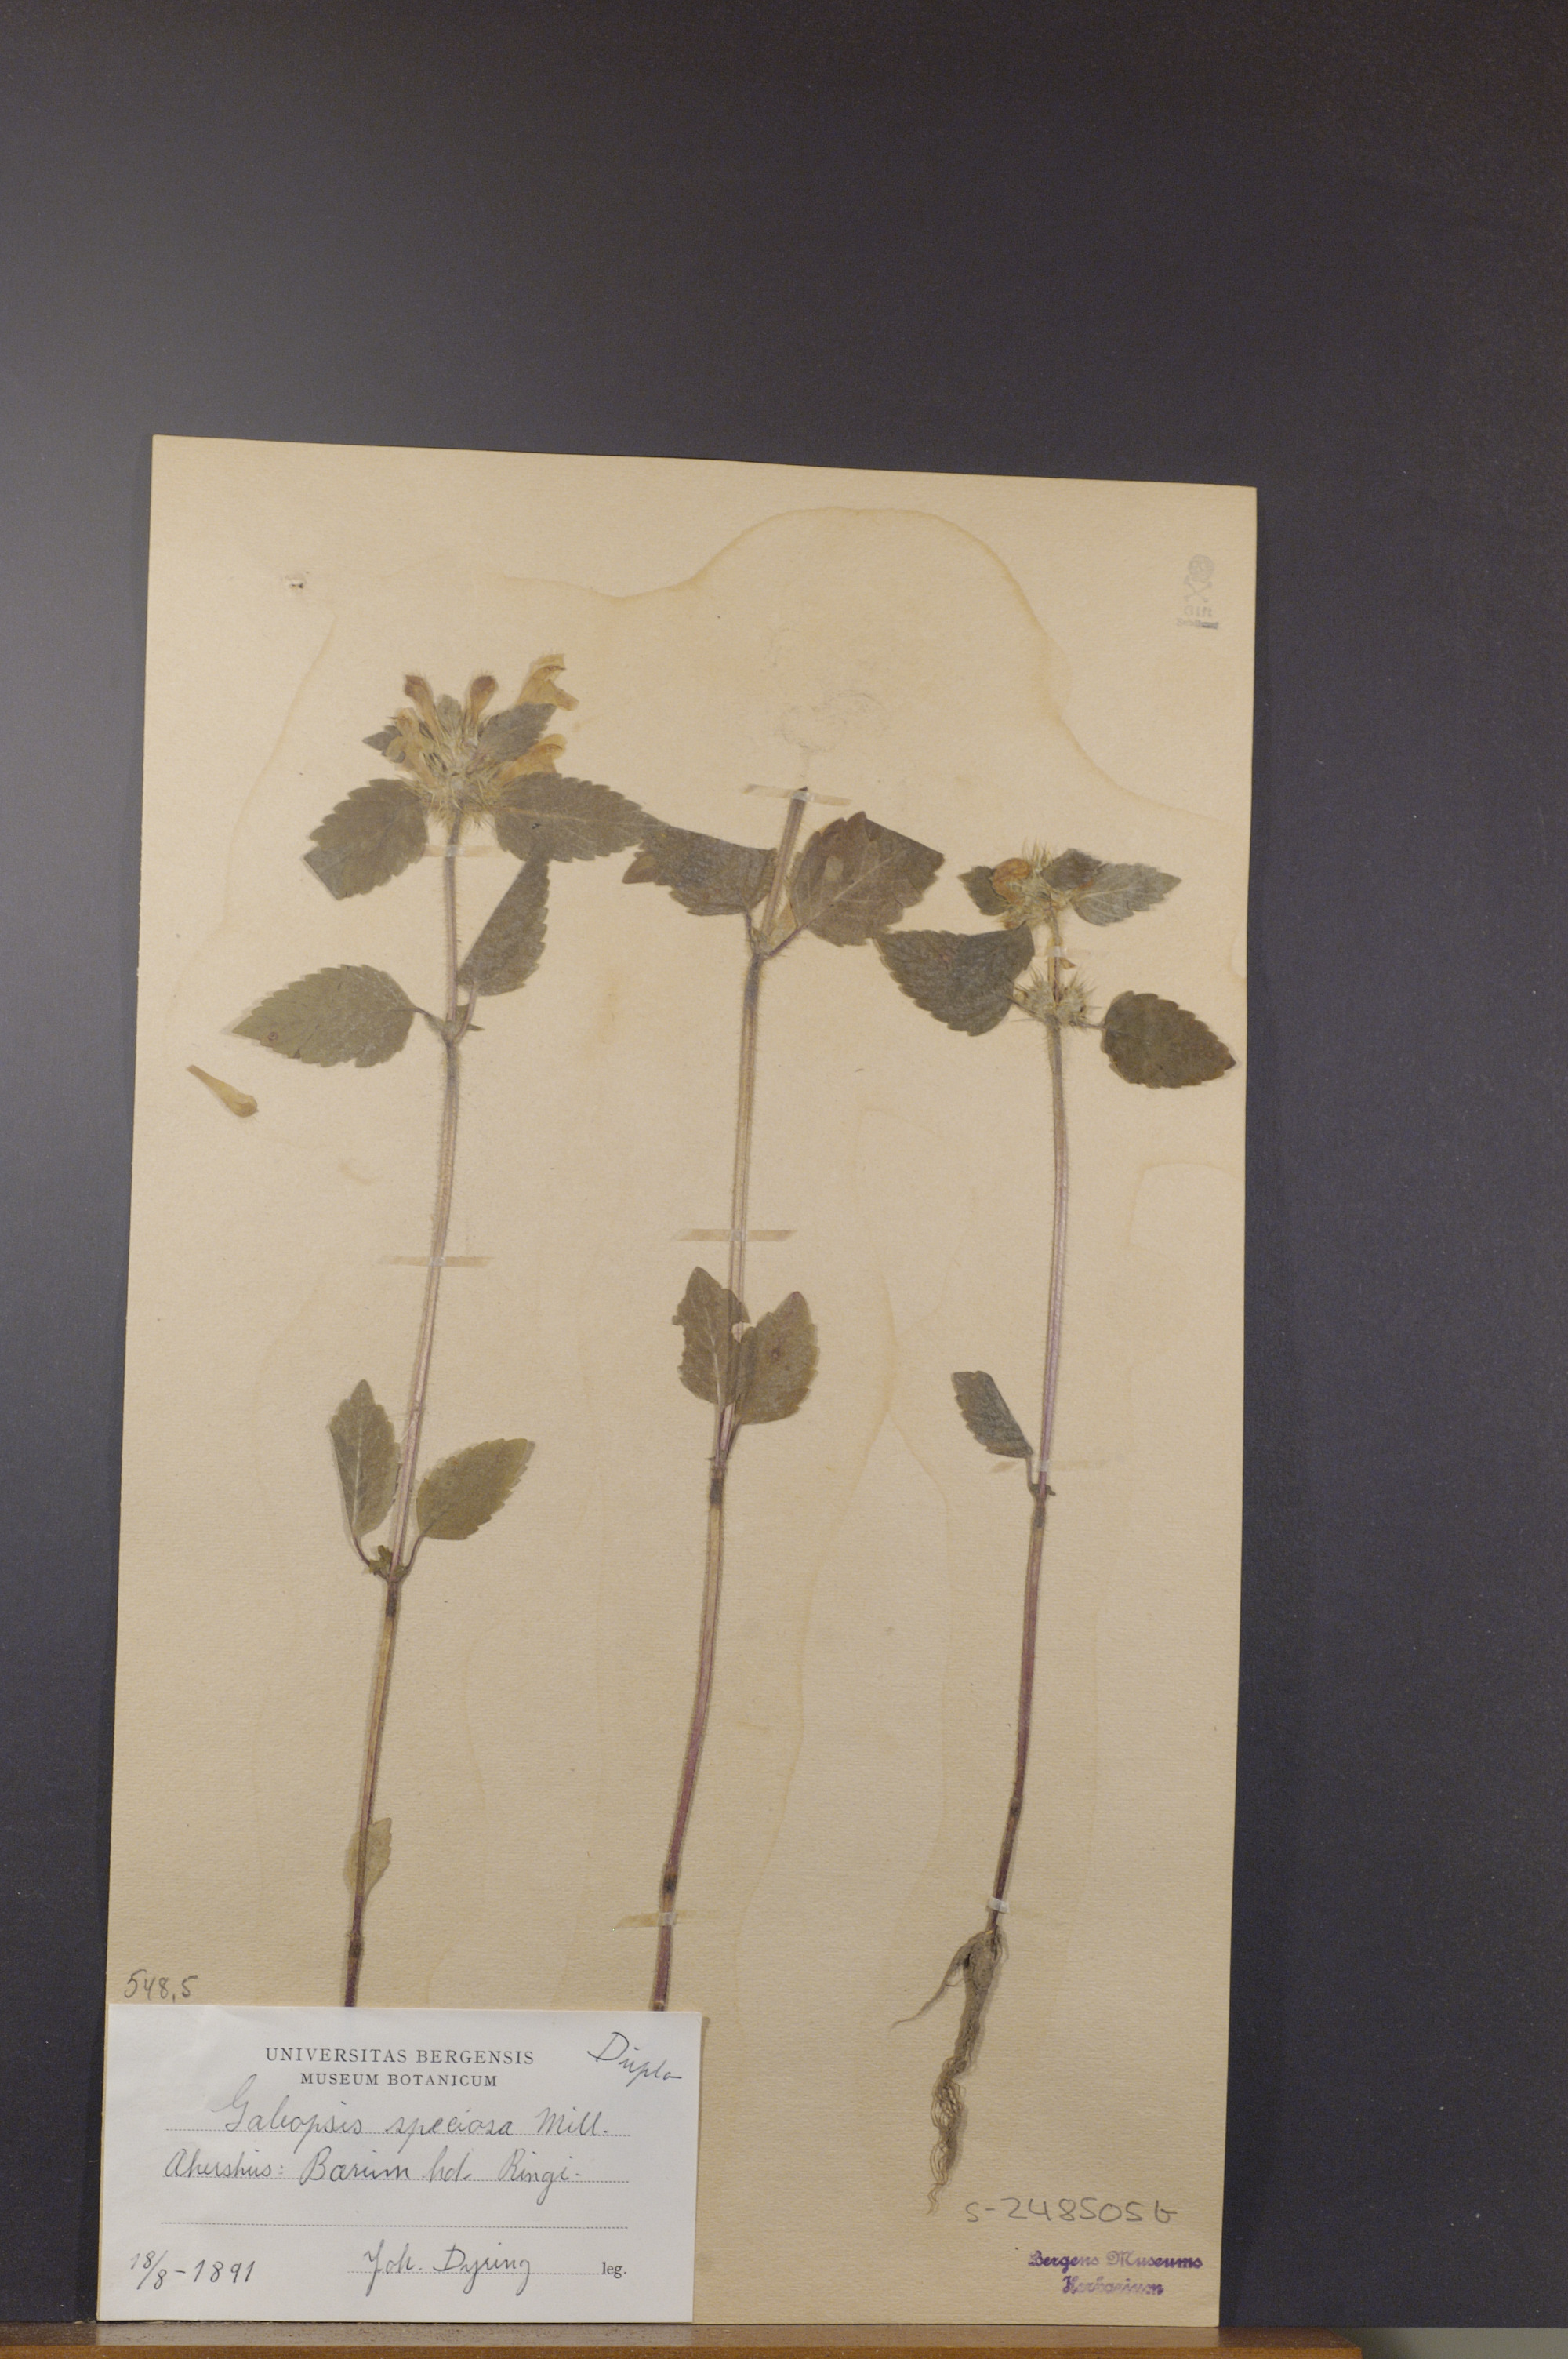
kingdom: Plantae
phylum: Tracheophyta
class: Magnoliopsida
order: Lamiales
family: Lamiaceae
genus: Galeopsis
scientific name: Galeopsis speciosa
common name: Large-flowered hemp-nettle
